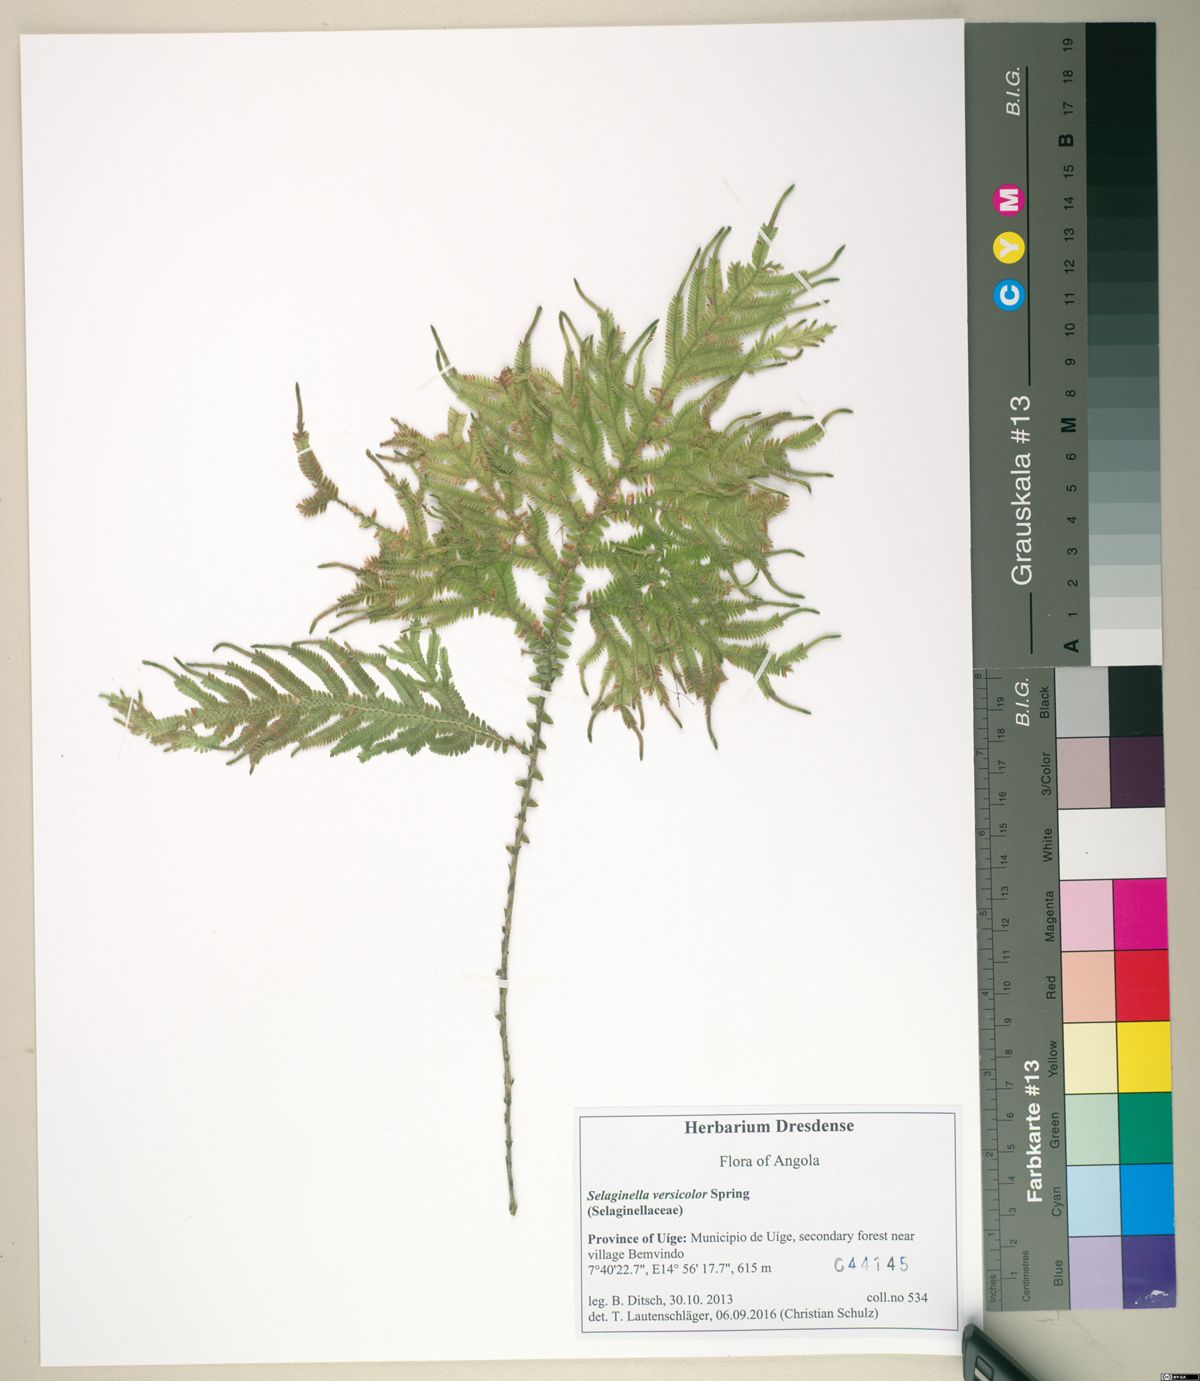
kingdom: Plantae
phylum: Tracheophyta
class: Lycopodiopsida
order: Selaginellales
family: Selaginellaceae
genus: Selaginella
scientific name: Selaginella versicolor
